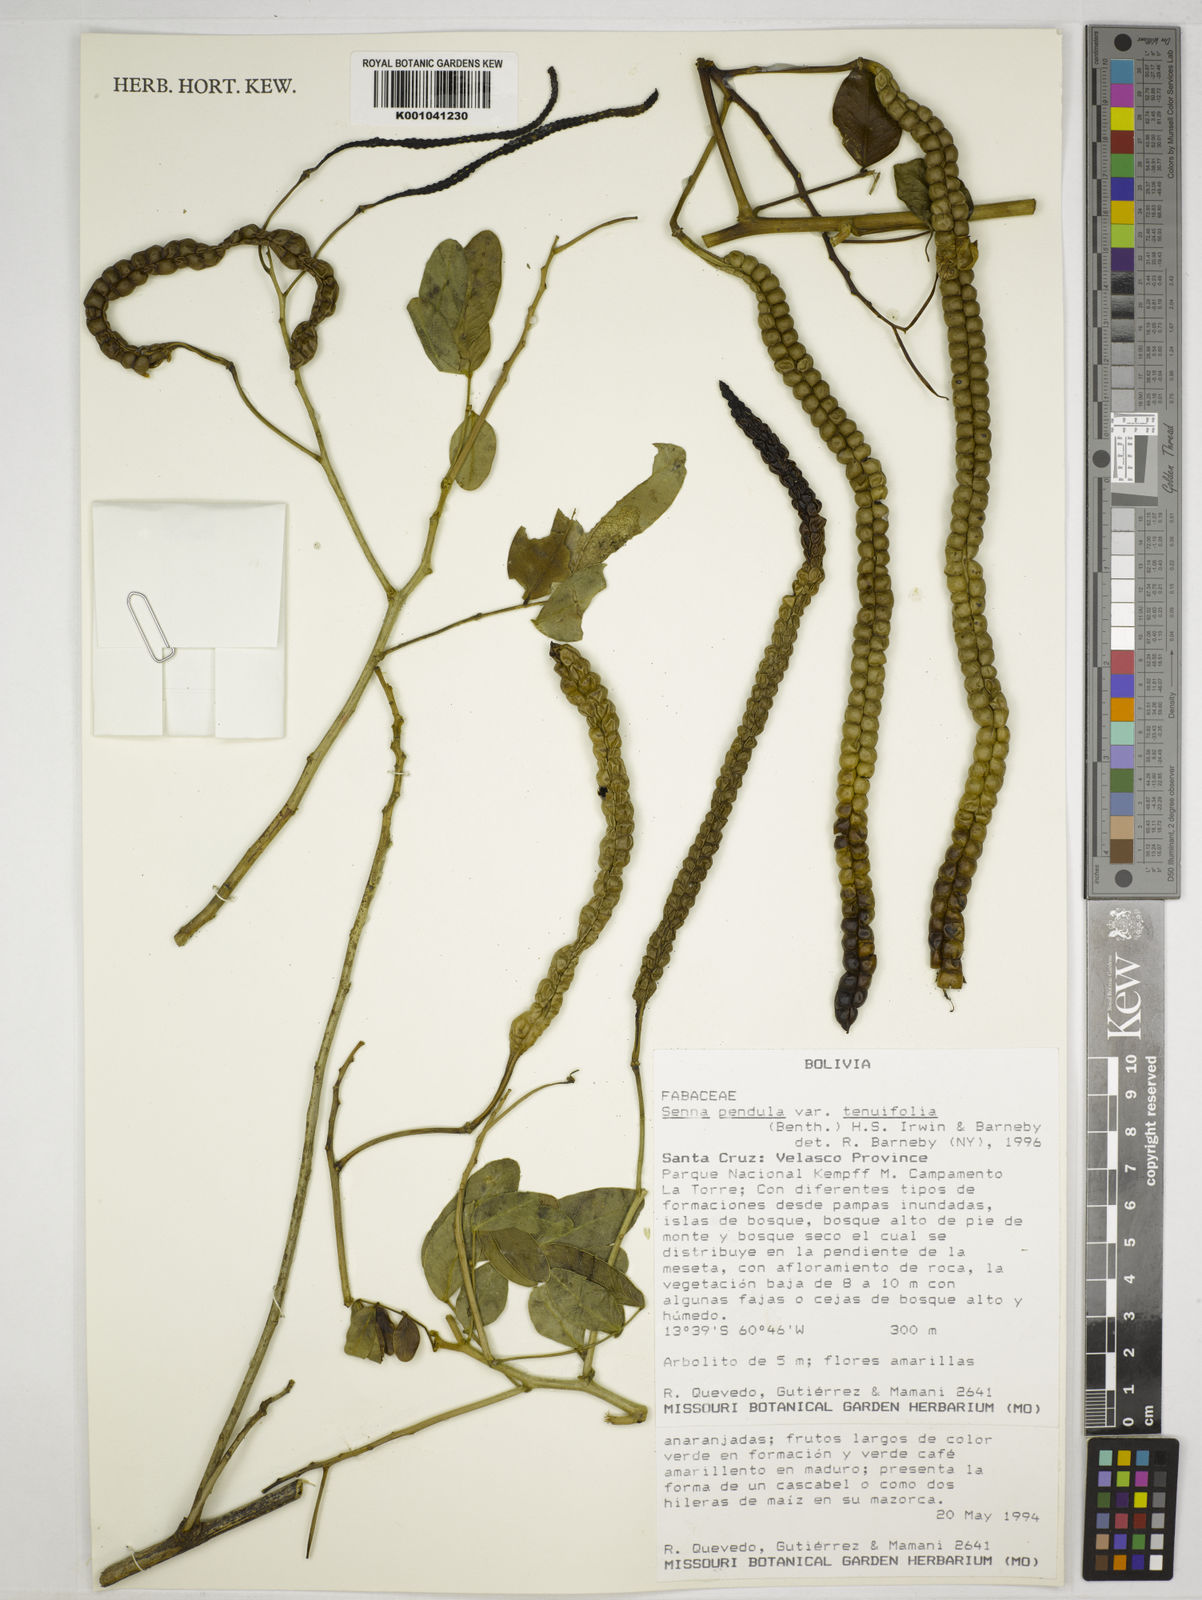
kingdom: Plantae
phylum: Tracheophyta
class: Magnoliopsida
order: Fabales
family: Fabaceae
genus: Senna
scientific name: Senna pendula
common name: Easter cassia
